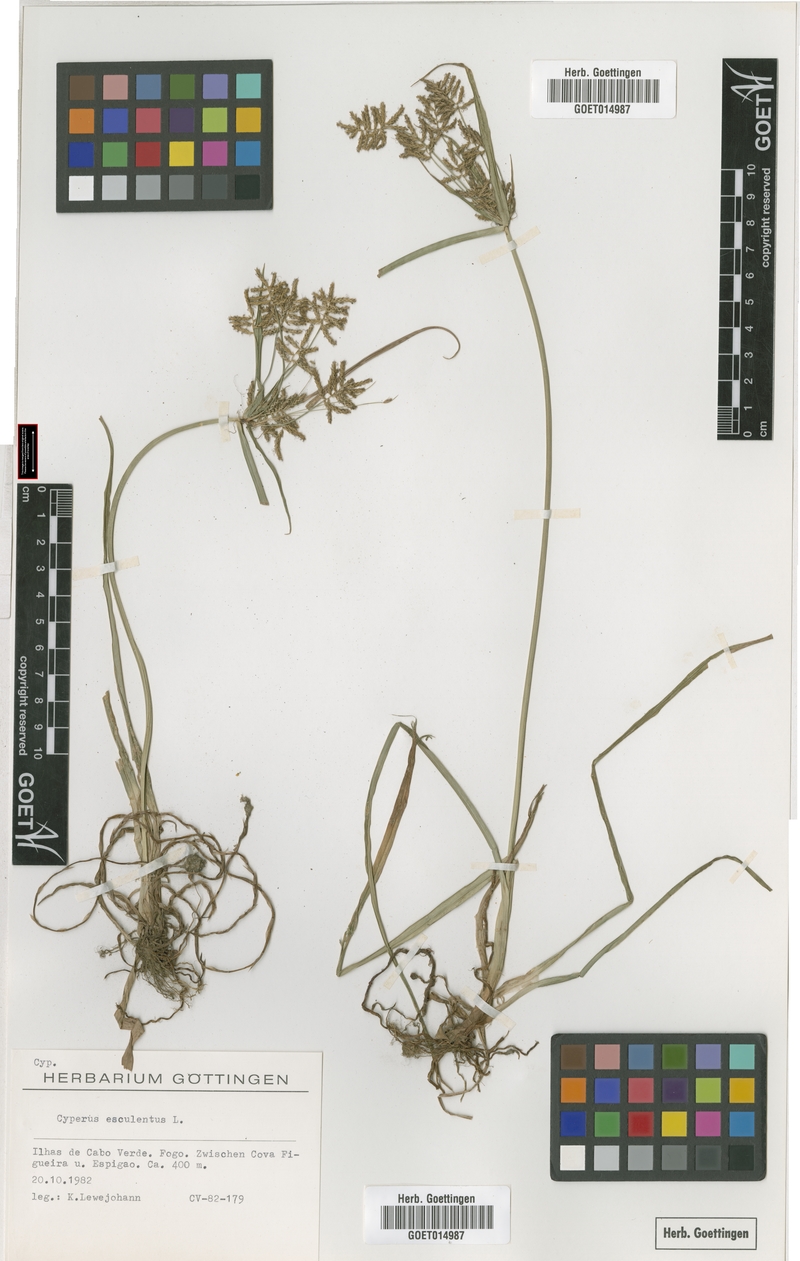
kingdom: Plantae
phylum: Tracheophyta
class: Liliopsida
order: Poales
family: Cyperaceae
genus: Cyperus
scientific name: Cyperus esculentus
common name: Yellow nutsedge
